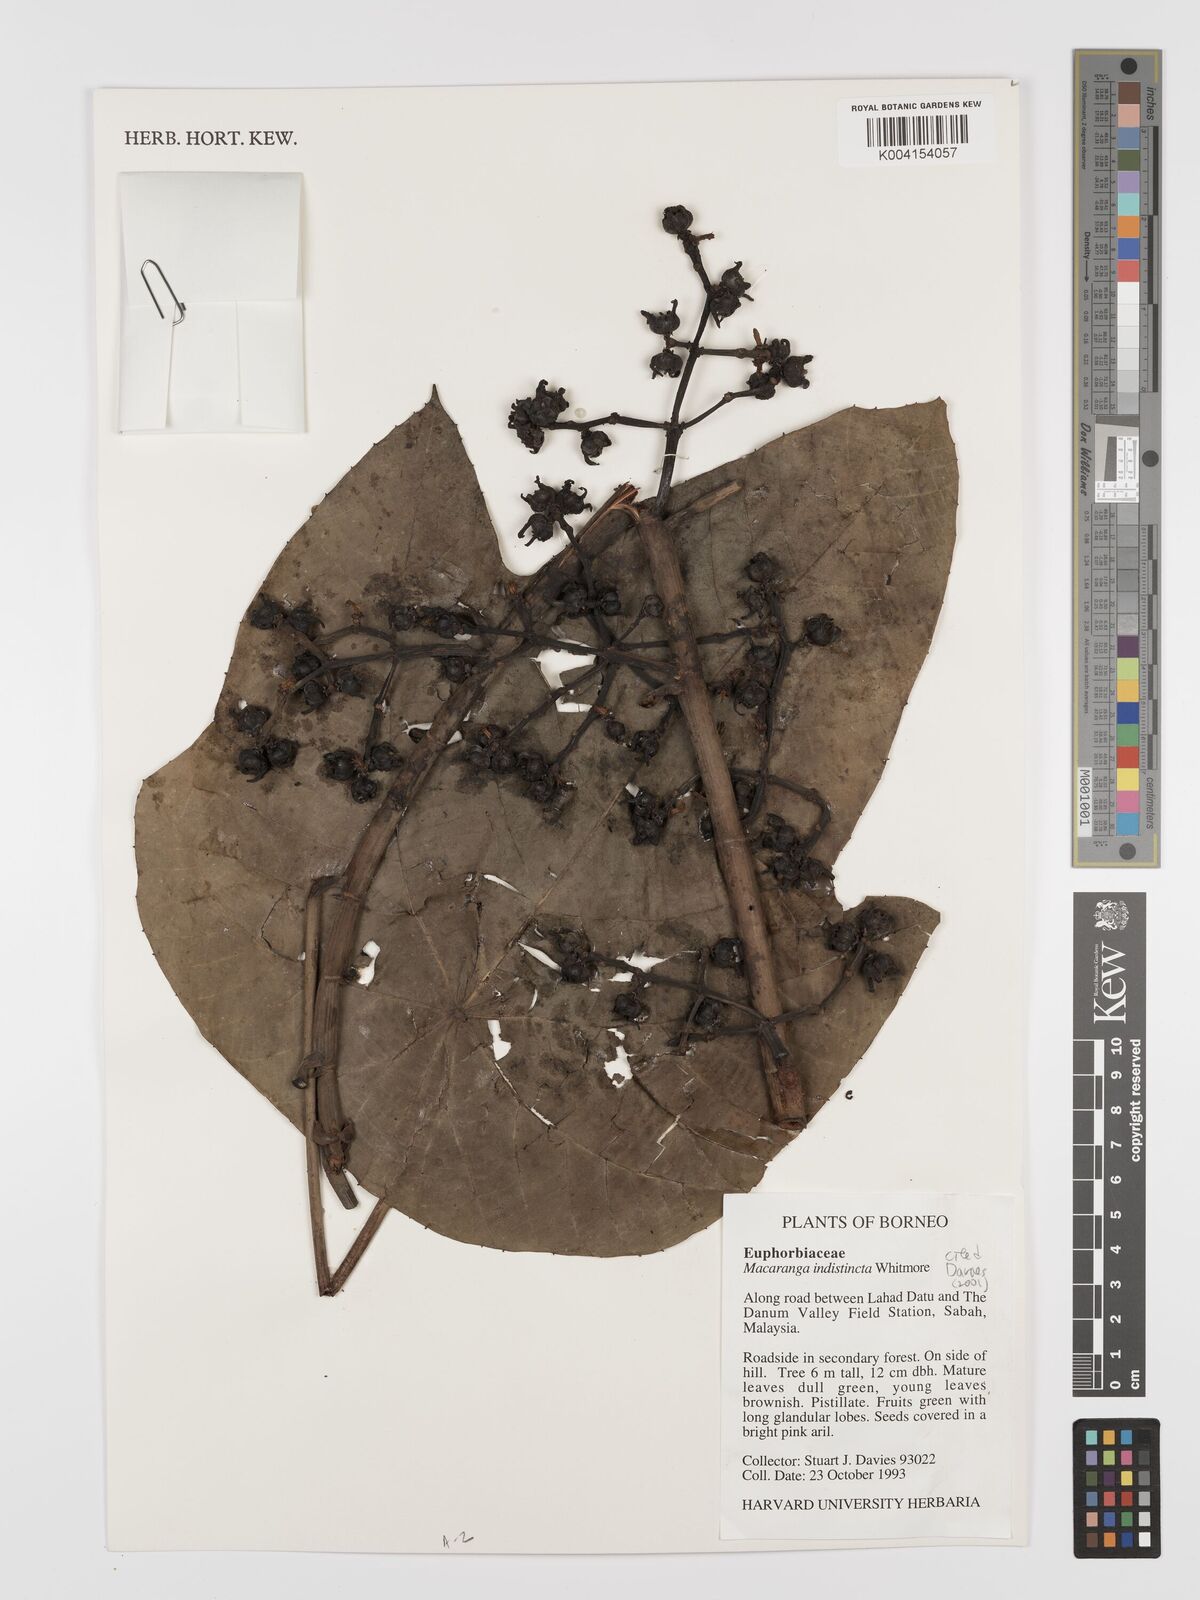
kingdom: Plantae
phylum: Tracheophyta
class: Magnoliopsida
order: Malpighiales
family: Euphorbiaceae
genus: Macaranga
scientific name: Macaranga indistincta
